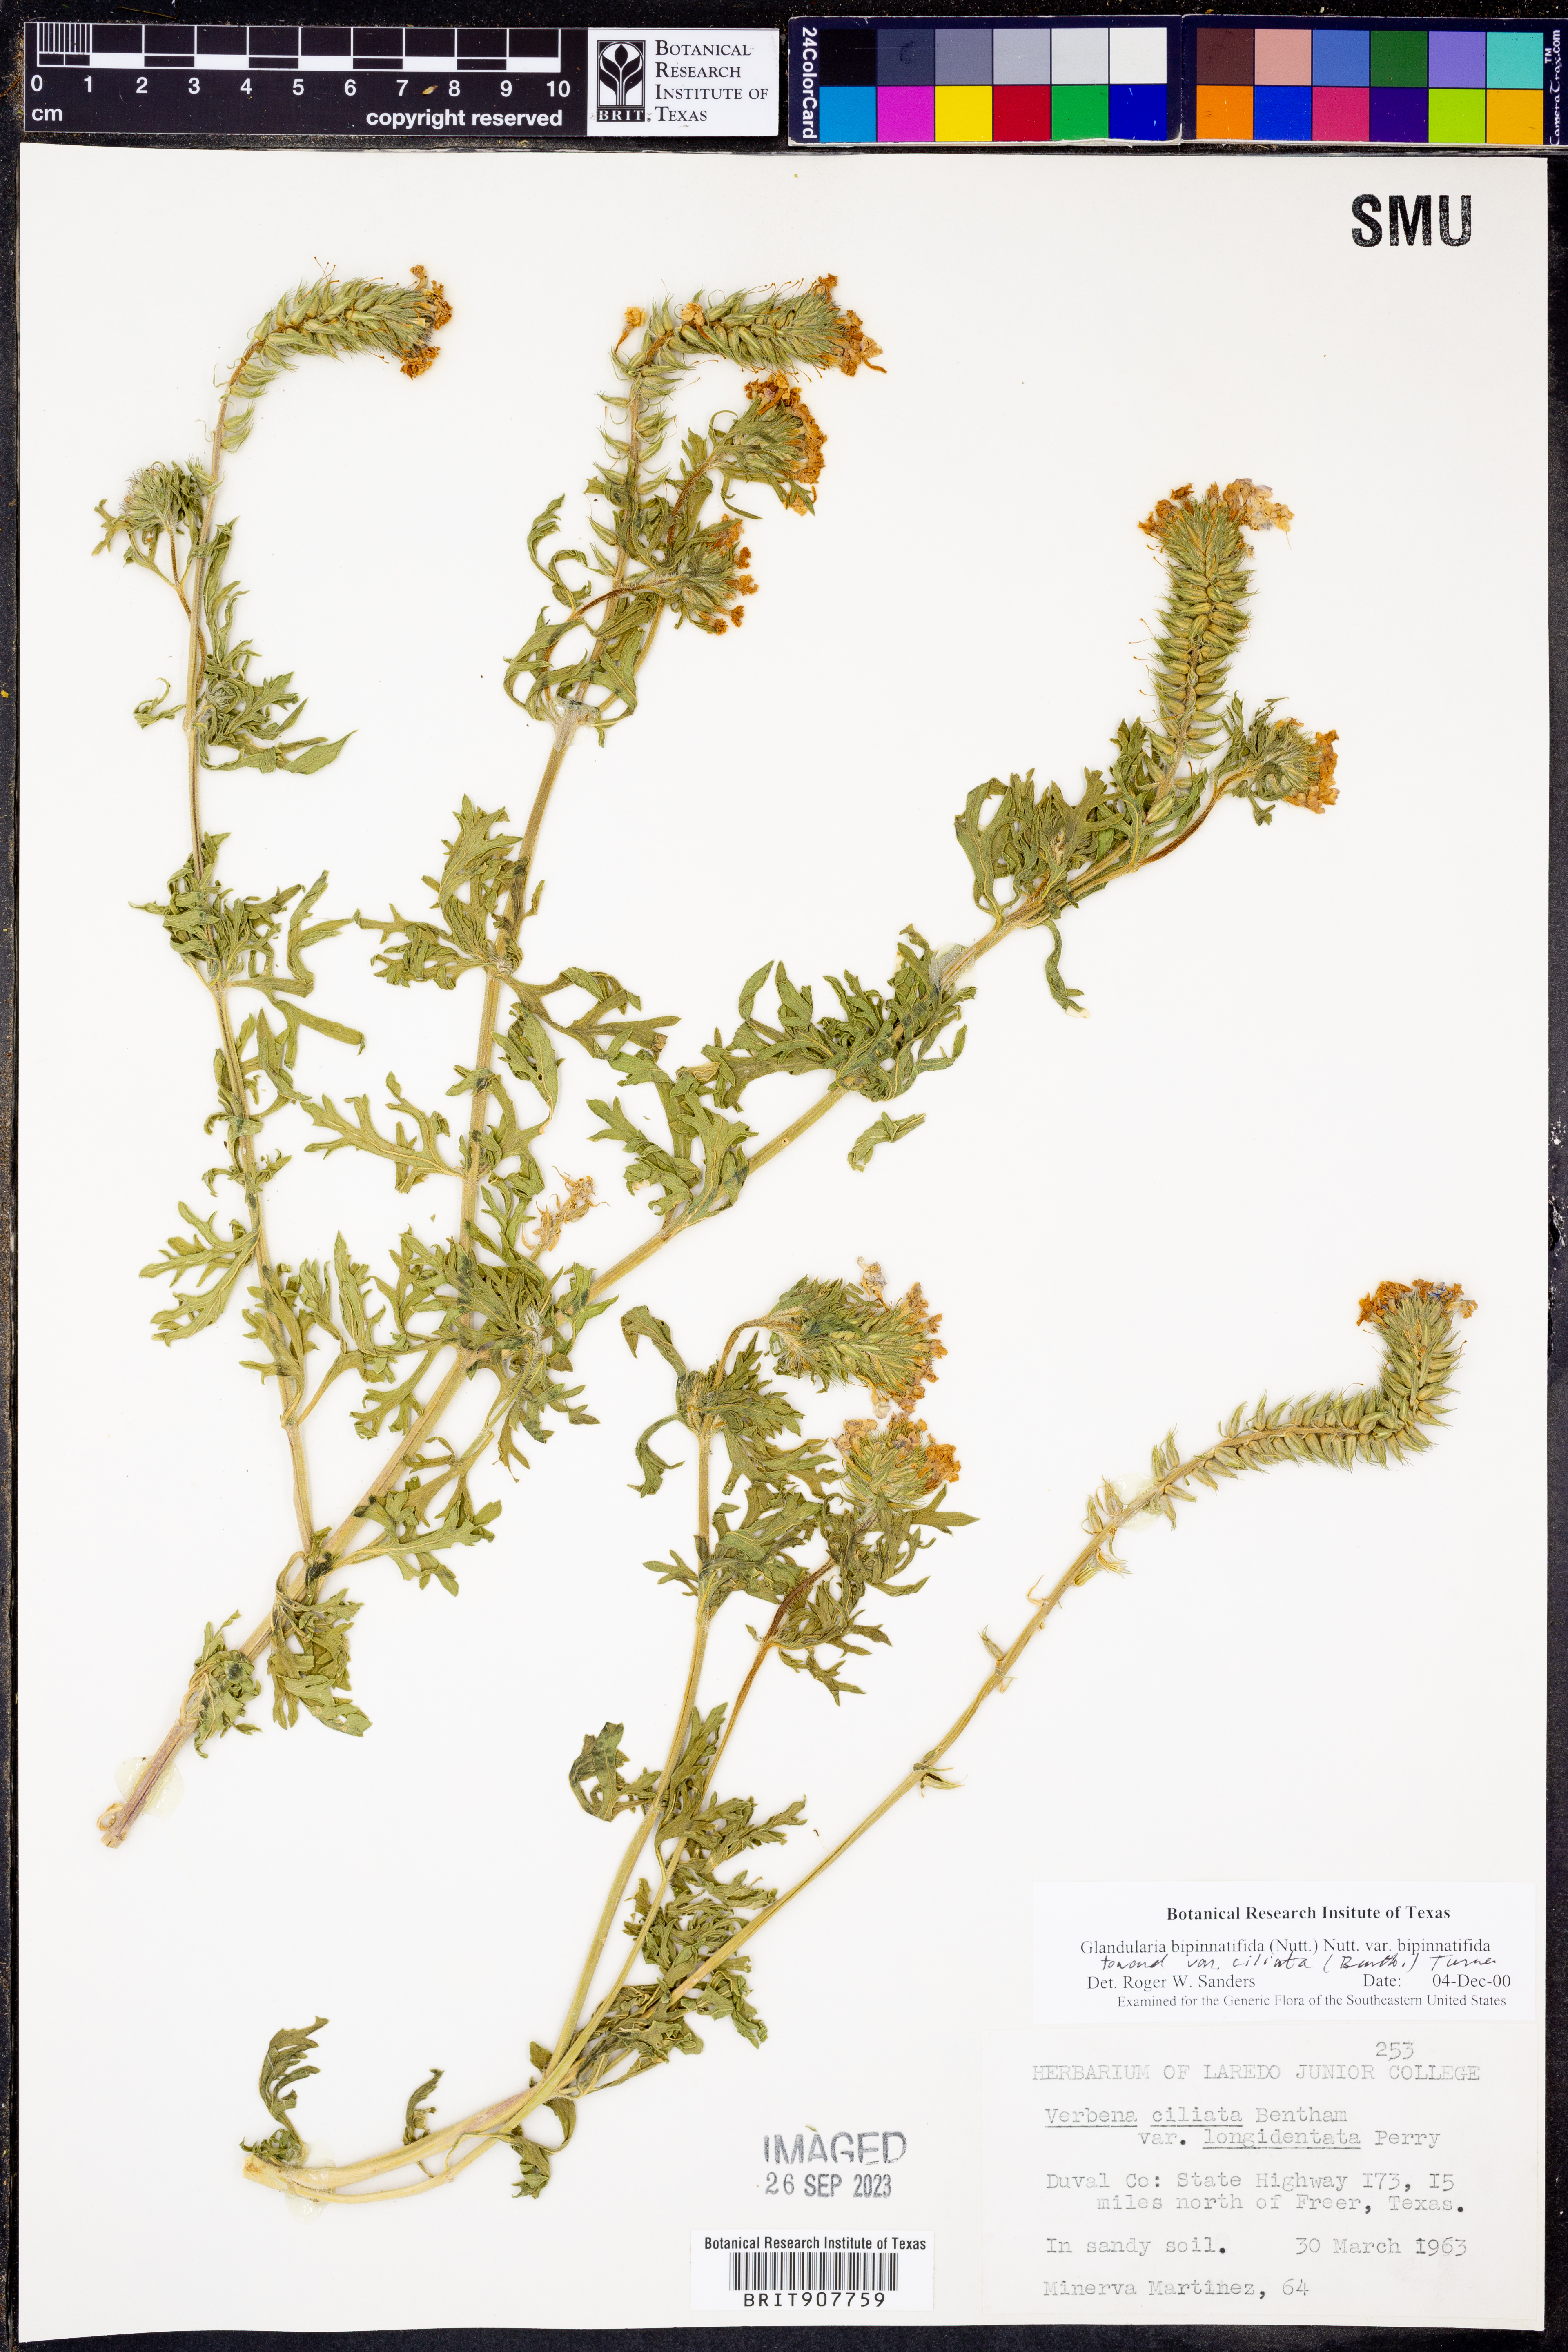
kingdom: Plantae
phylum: Tracheophyta
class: Magnoliopsida
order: Lamiales
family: Verbenaceae
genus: Verbena
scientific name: Verbena bipinnatifida
